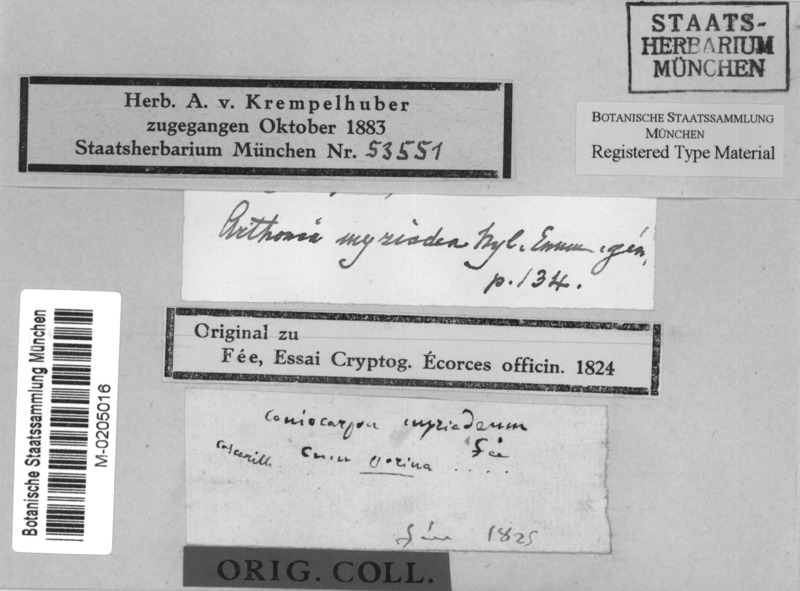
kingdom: Fungi
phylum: Ascomycota
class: Arthoniomycetes
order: Arthoniales
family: Arthoniaceae
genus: Arthonia
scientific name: Arthonia
